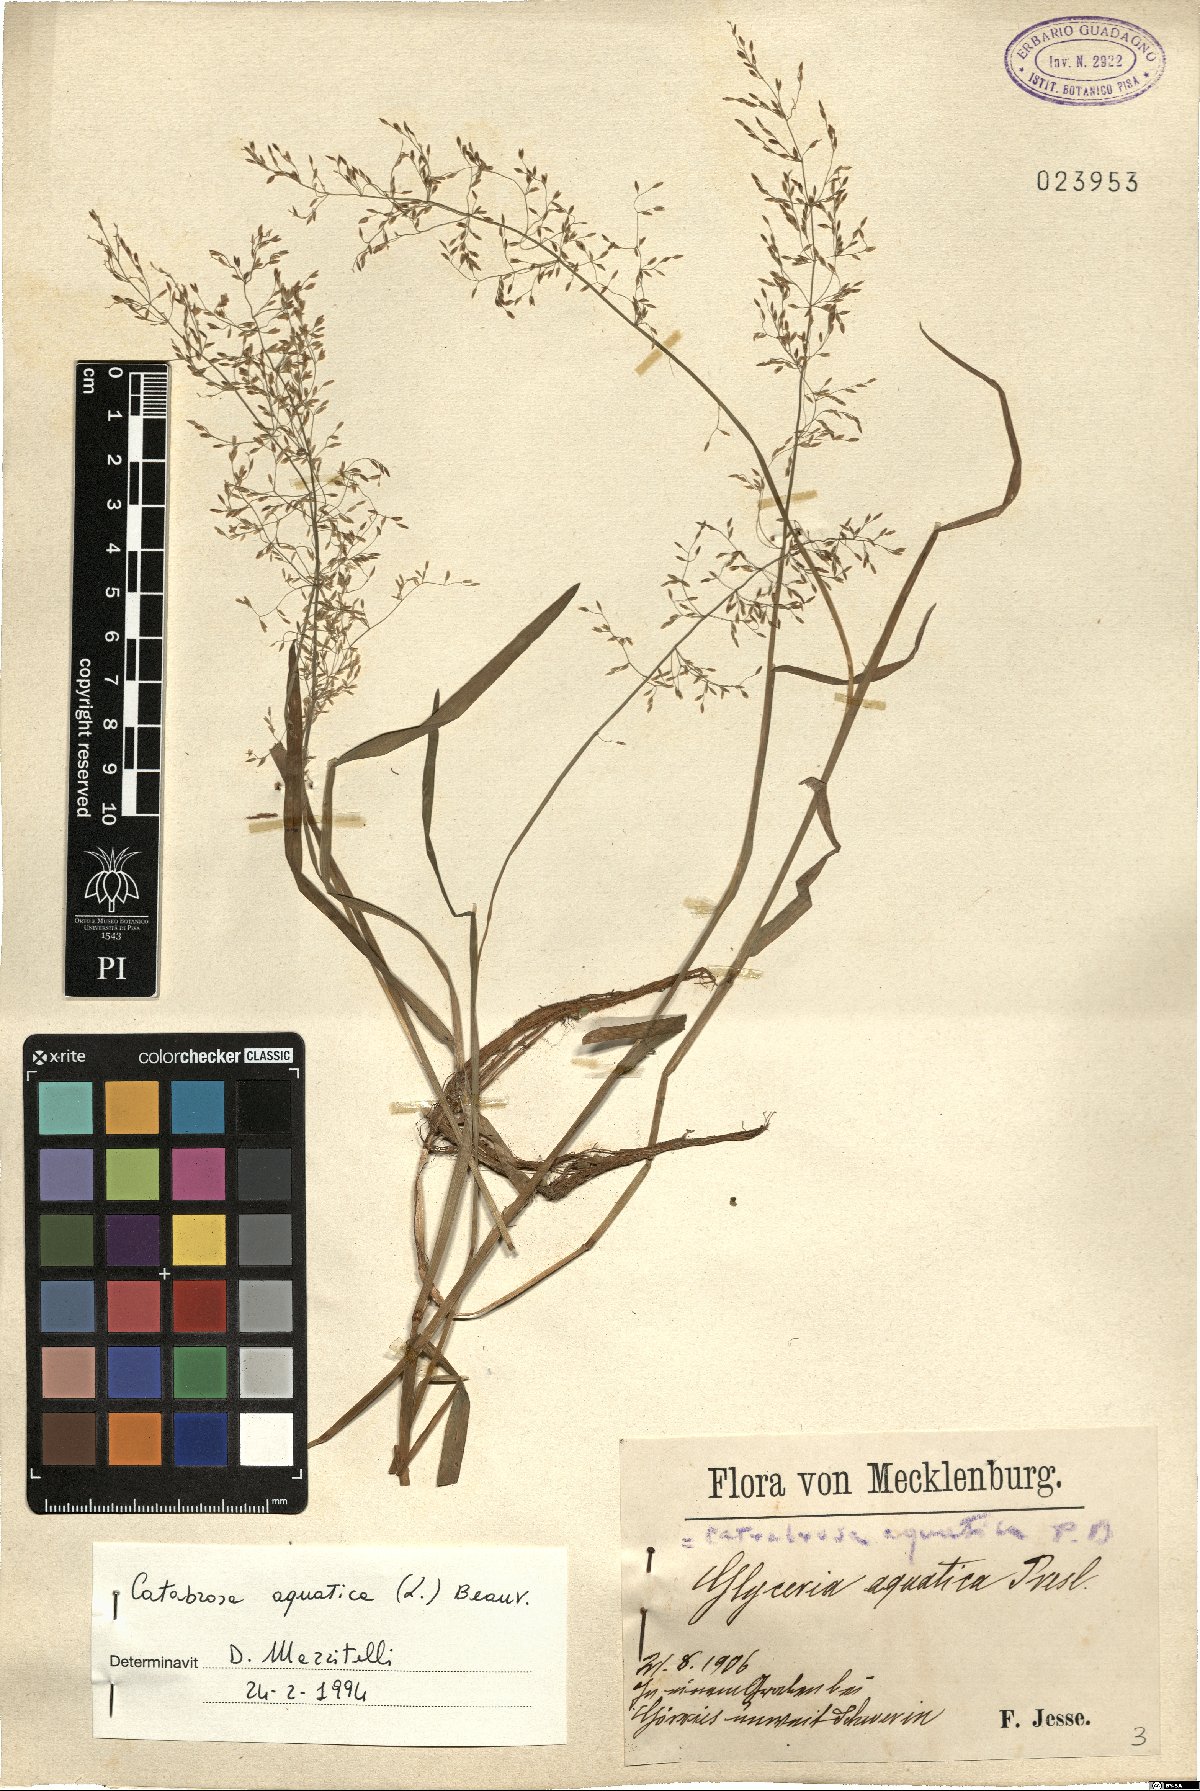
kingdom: Plantae
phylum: Tracheophyta
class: Liliopsida
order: Poales
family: Poaceae
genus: Catabrosa
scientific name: Catabrosa aquatica
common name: Whorl-grass
